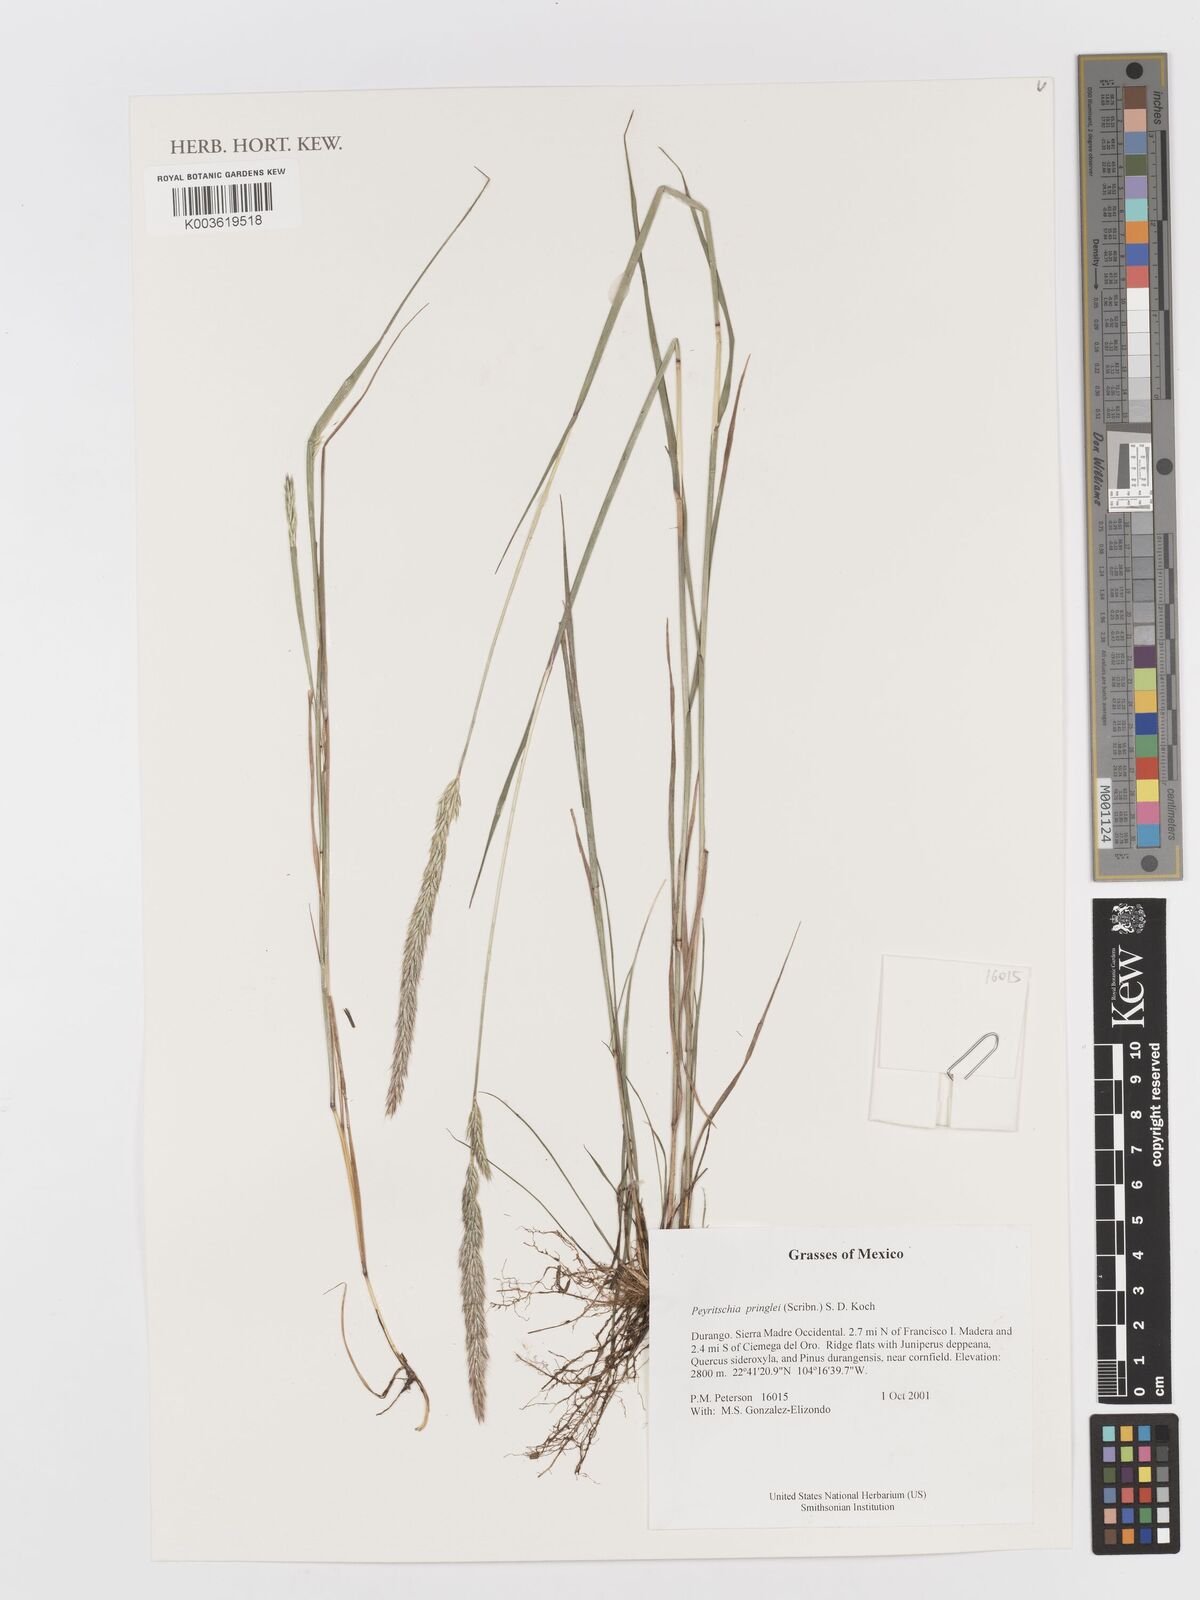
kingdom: Plantae
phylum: Tracheophyta
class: Liliopsida
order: Poales
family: Poaceae
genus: Peyritschia
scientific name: Peyritschia pringlei
